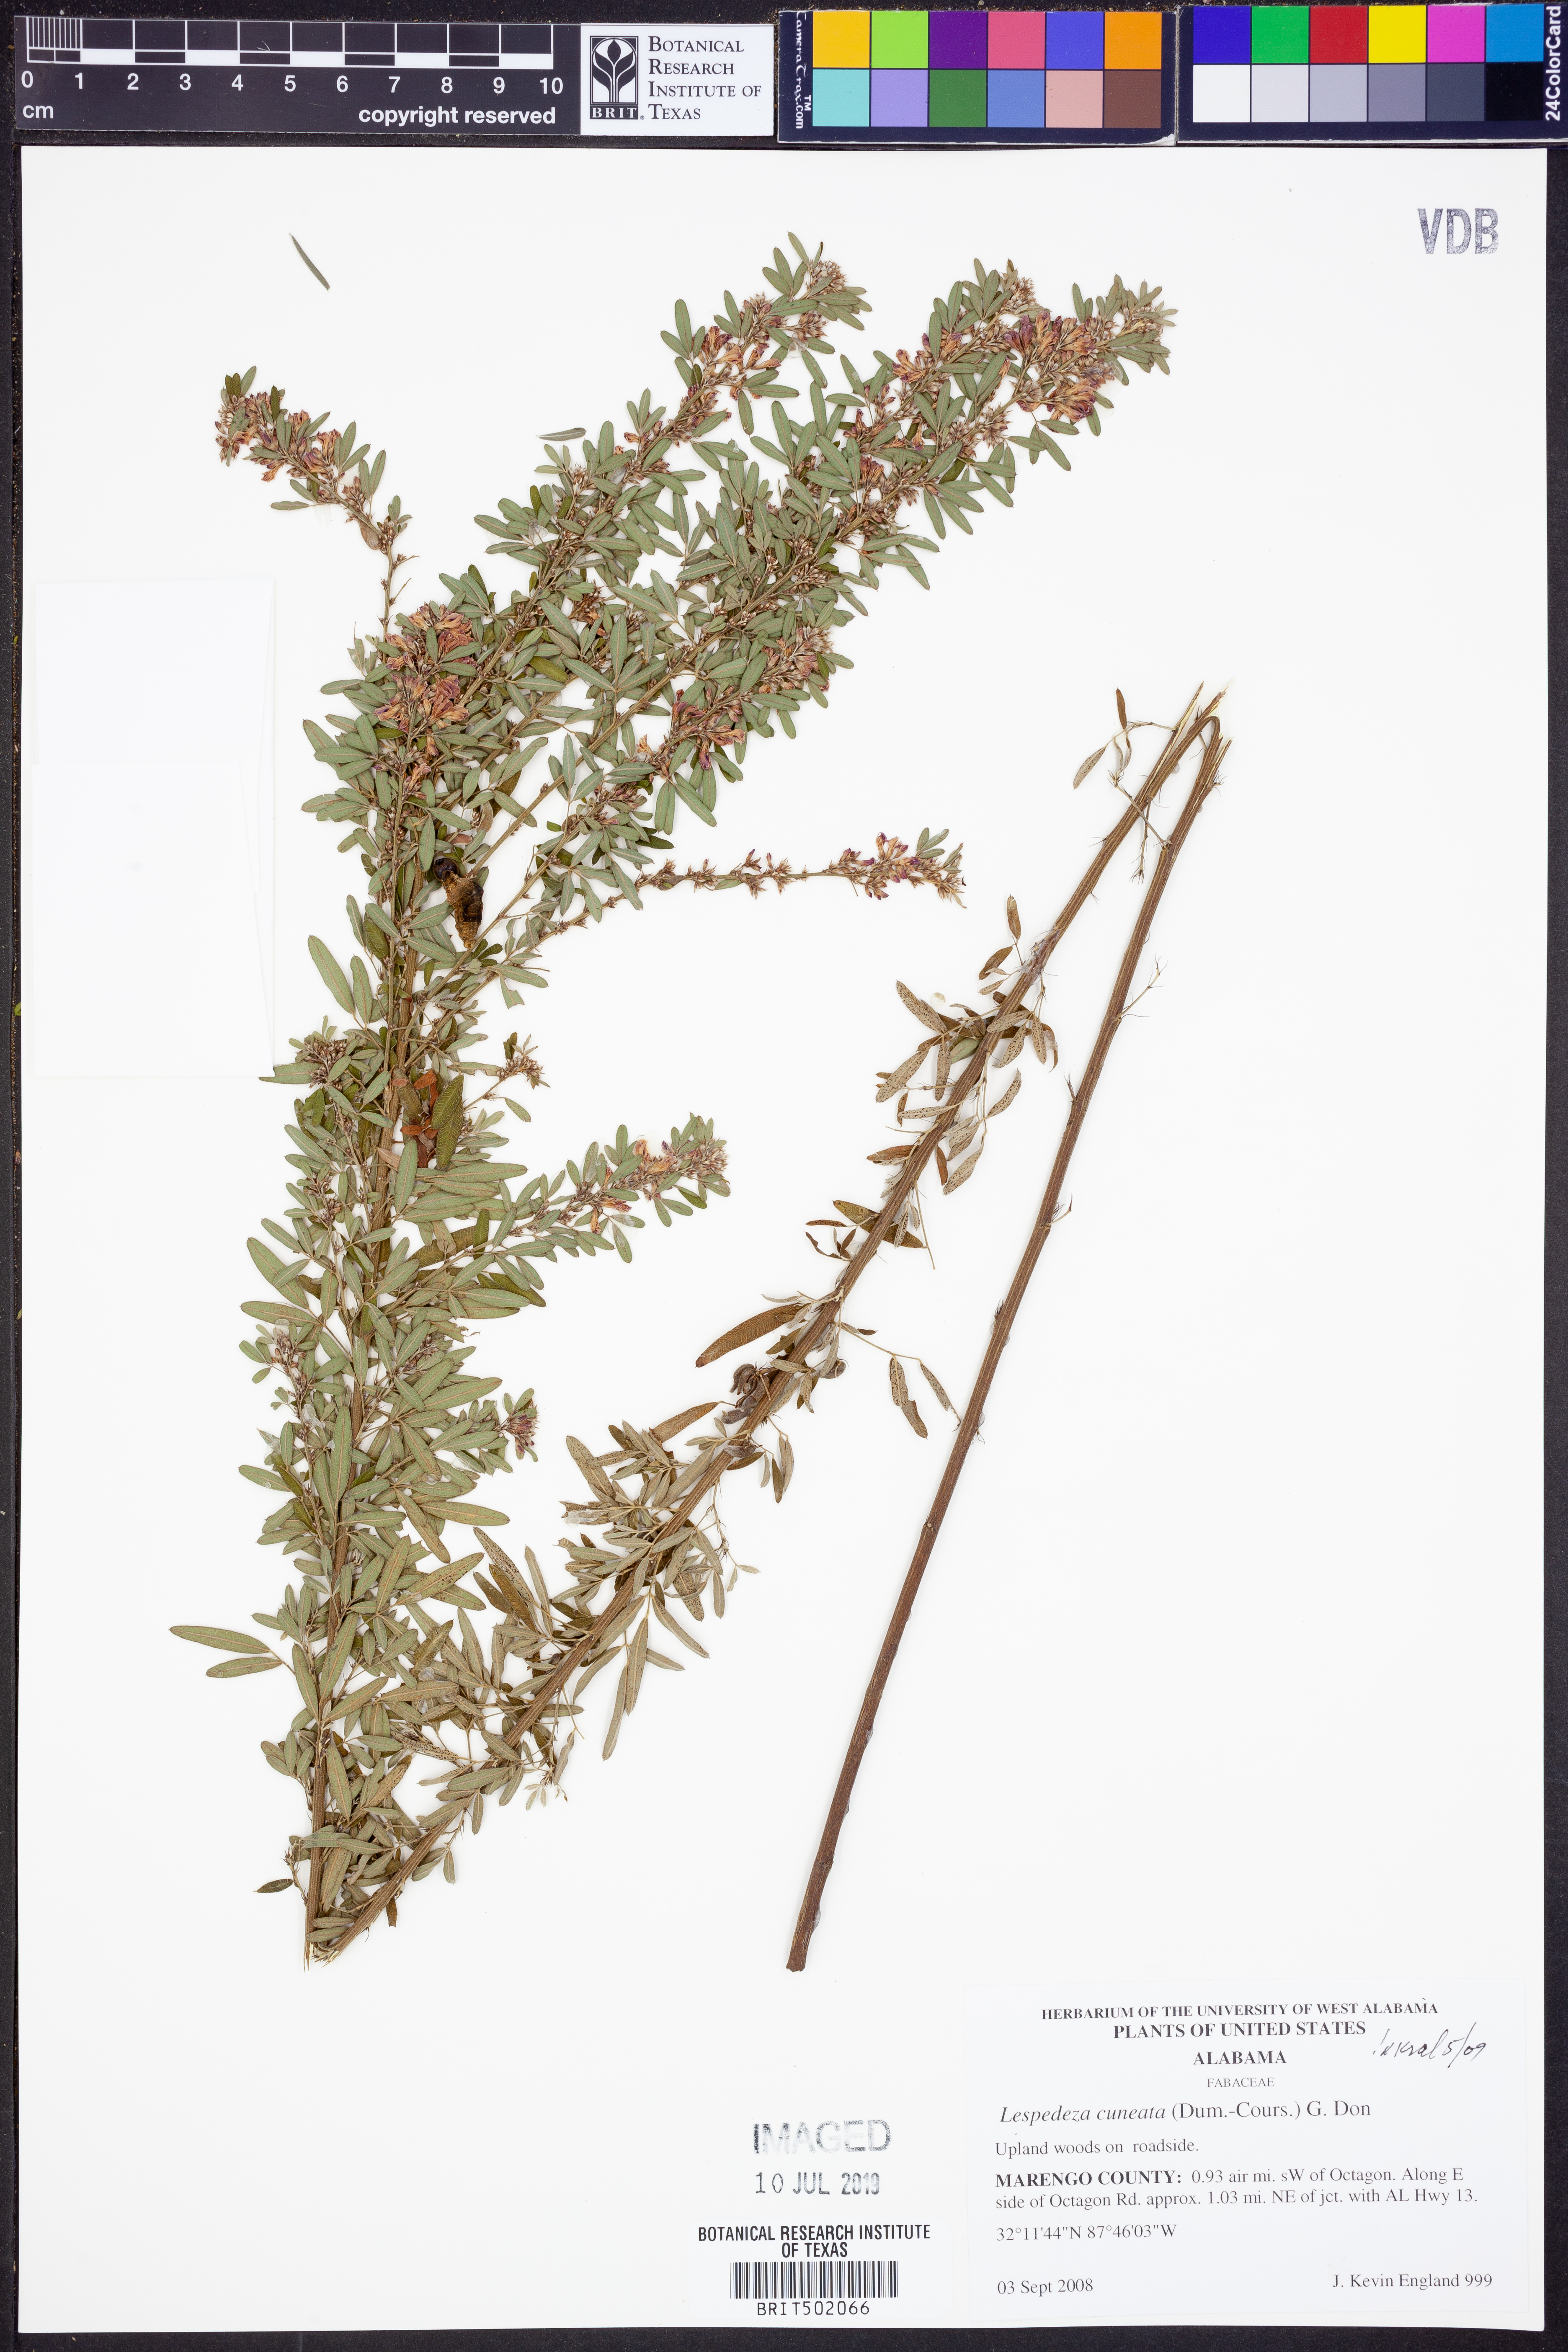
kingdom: Plantae
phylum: Tracheophyta
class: Magnoliopsida
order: Fabales
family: Fabaceae
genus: Lespedeza
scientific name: Lespedeza cuneata
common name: Chinese bush-clover
